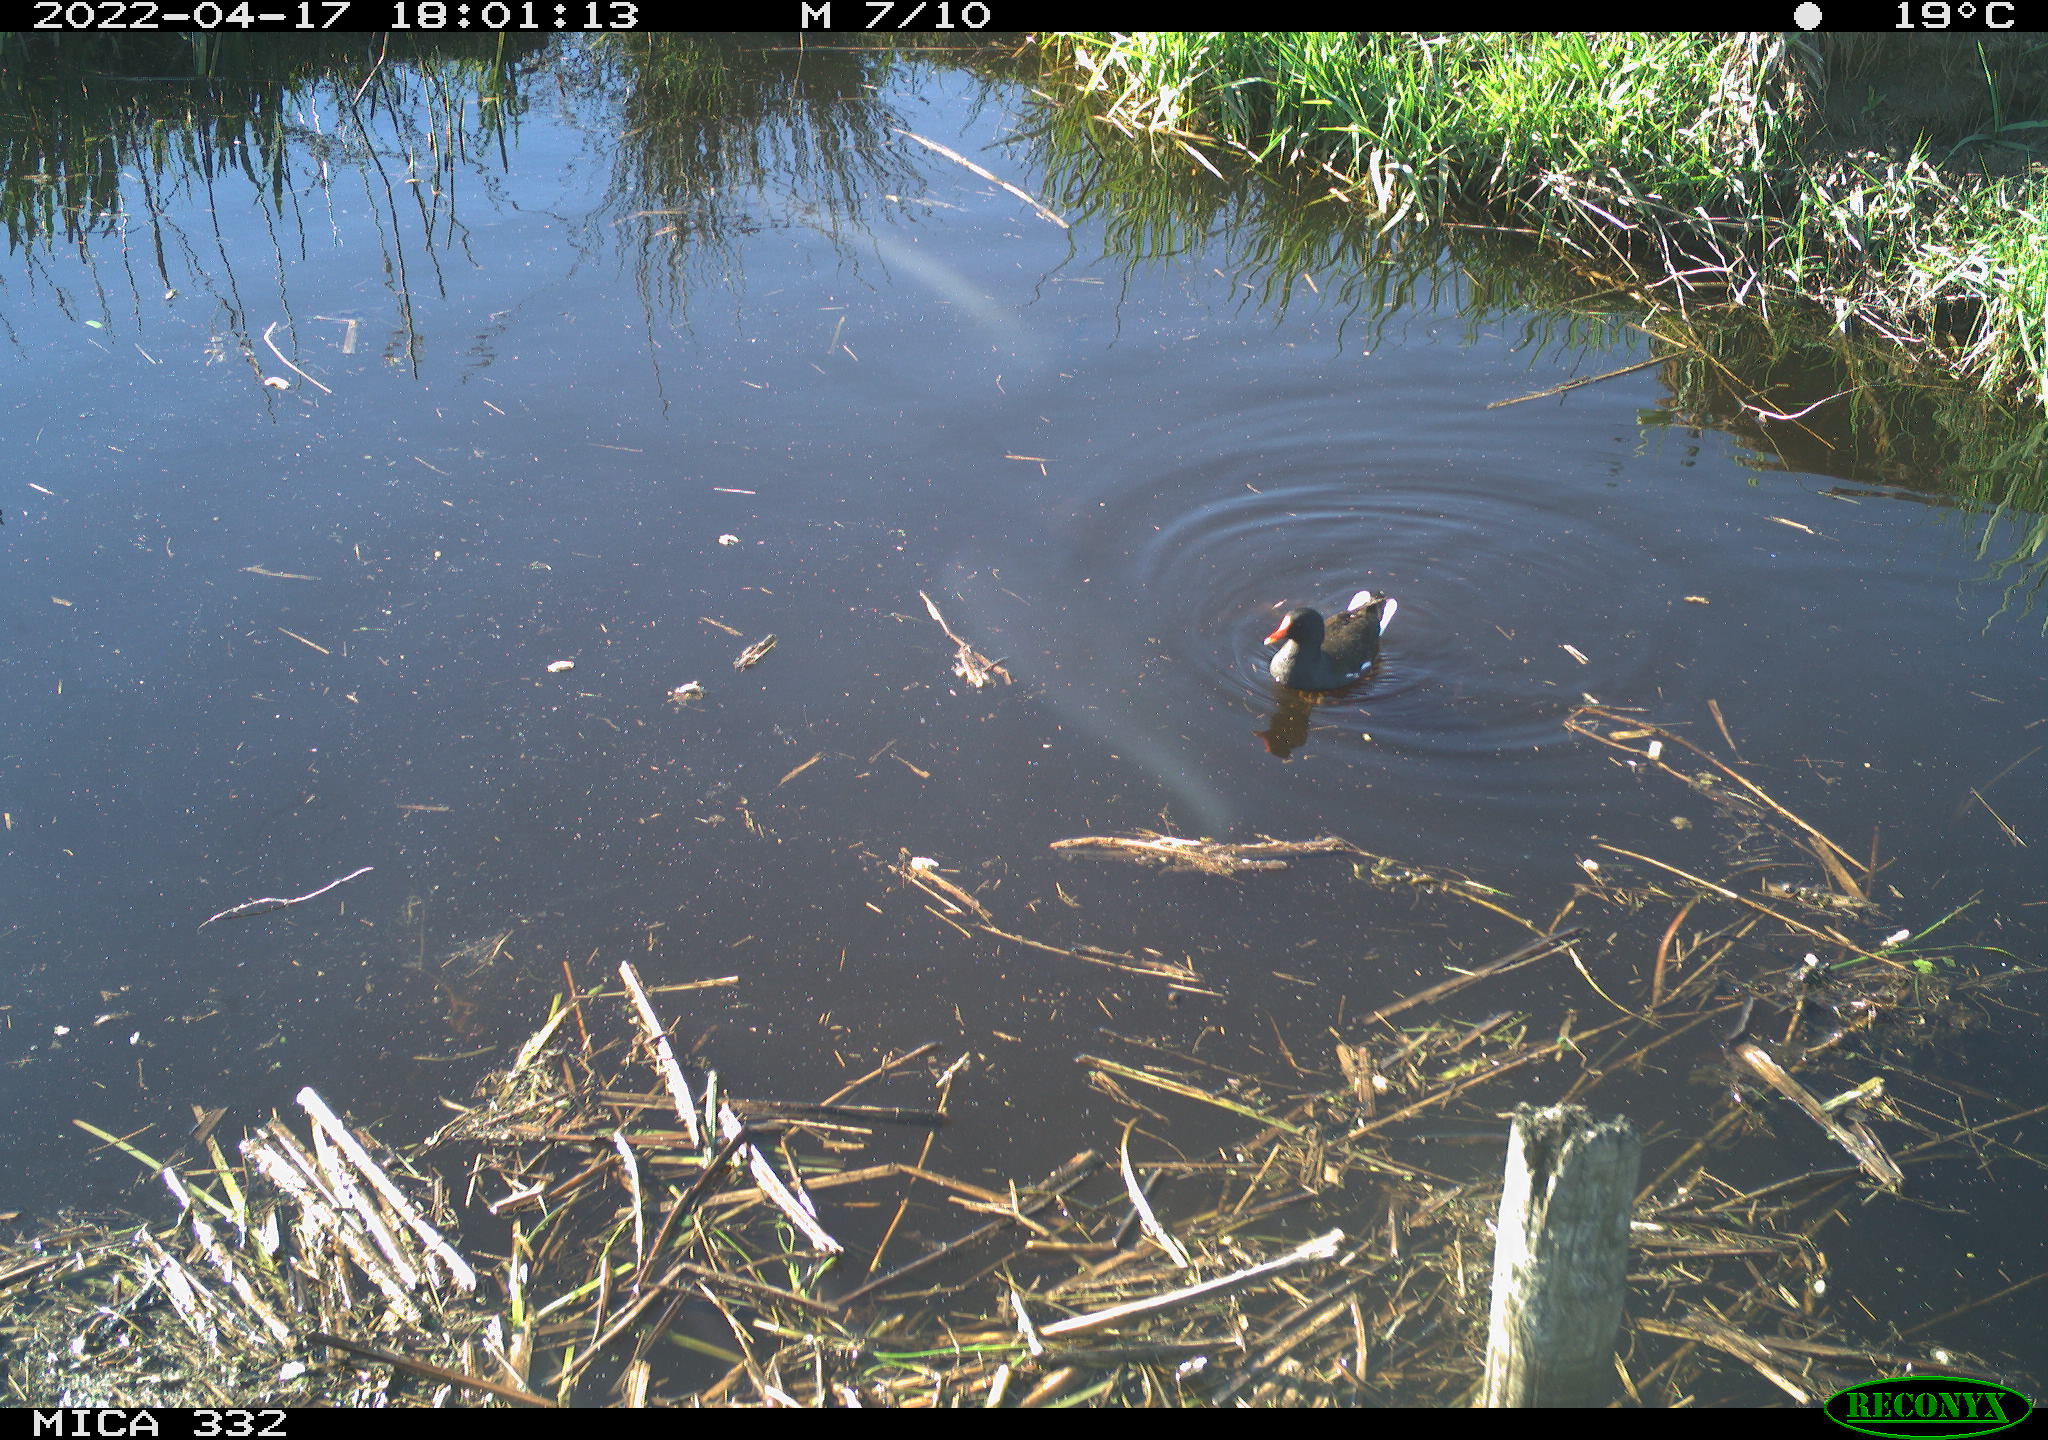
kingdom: Animalia
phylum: Chordata
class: Aves
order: Gruiformes
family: Rallidae
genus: Gallinula
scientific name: Gallinula chloropus
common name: Common moorhen
